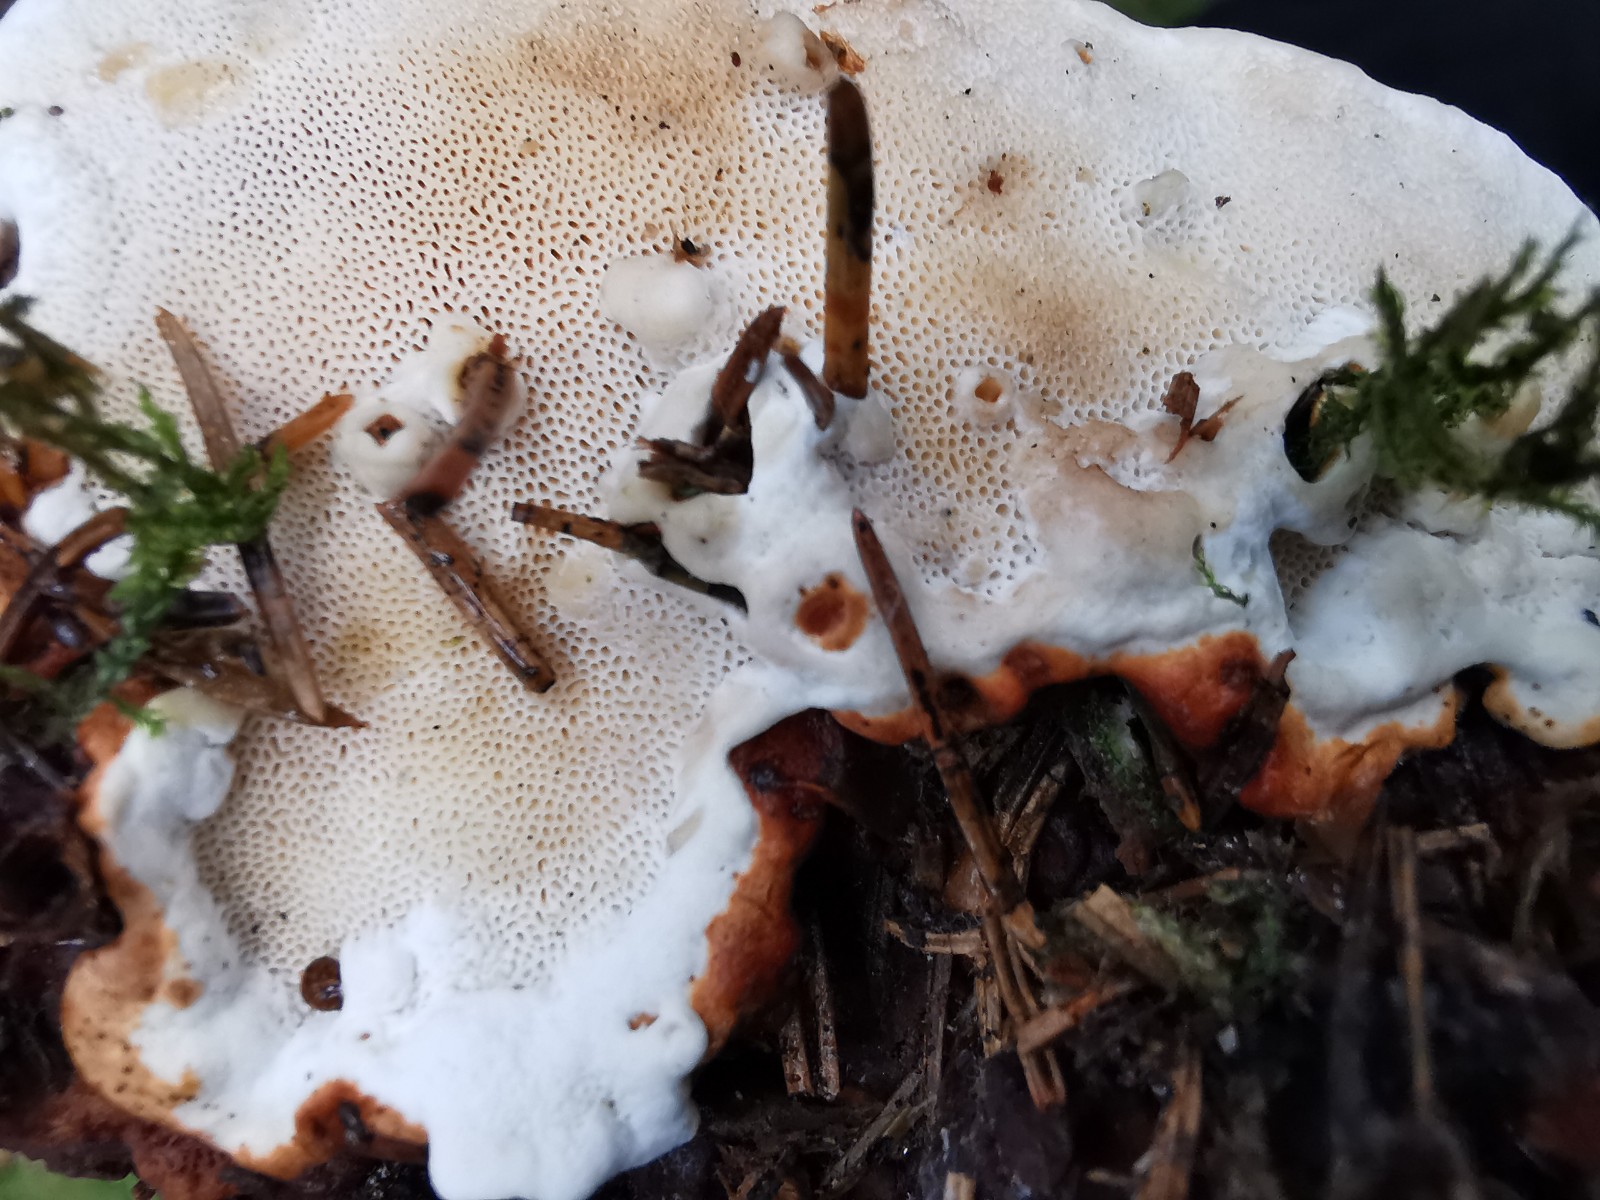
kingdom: Fungi
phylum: Basidiomycota
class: Agaricomycetes
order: Russulales
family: Bondarzewiaceae
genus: Heterobasidion
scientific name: Heterobasidion annosum
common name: almindelig rodfordærver
